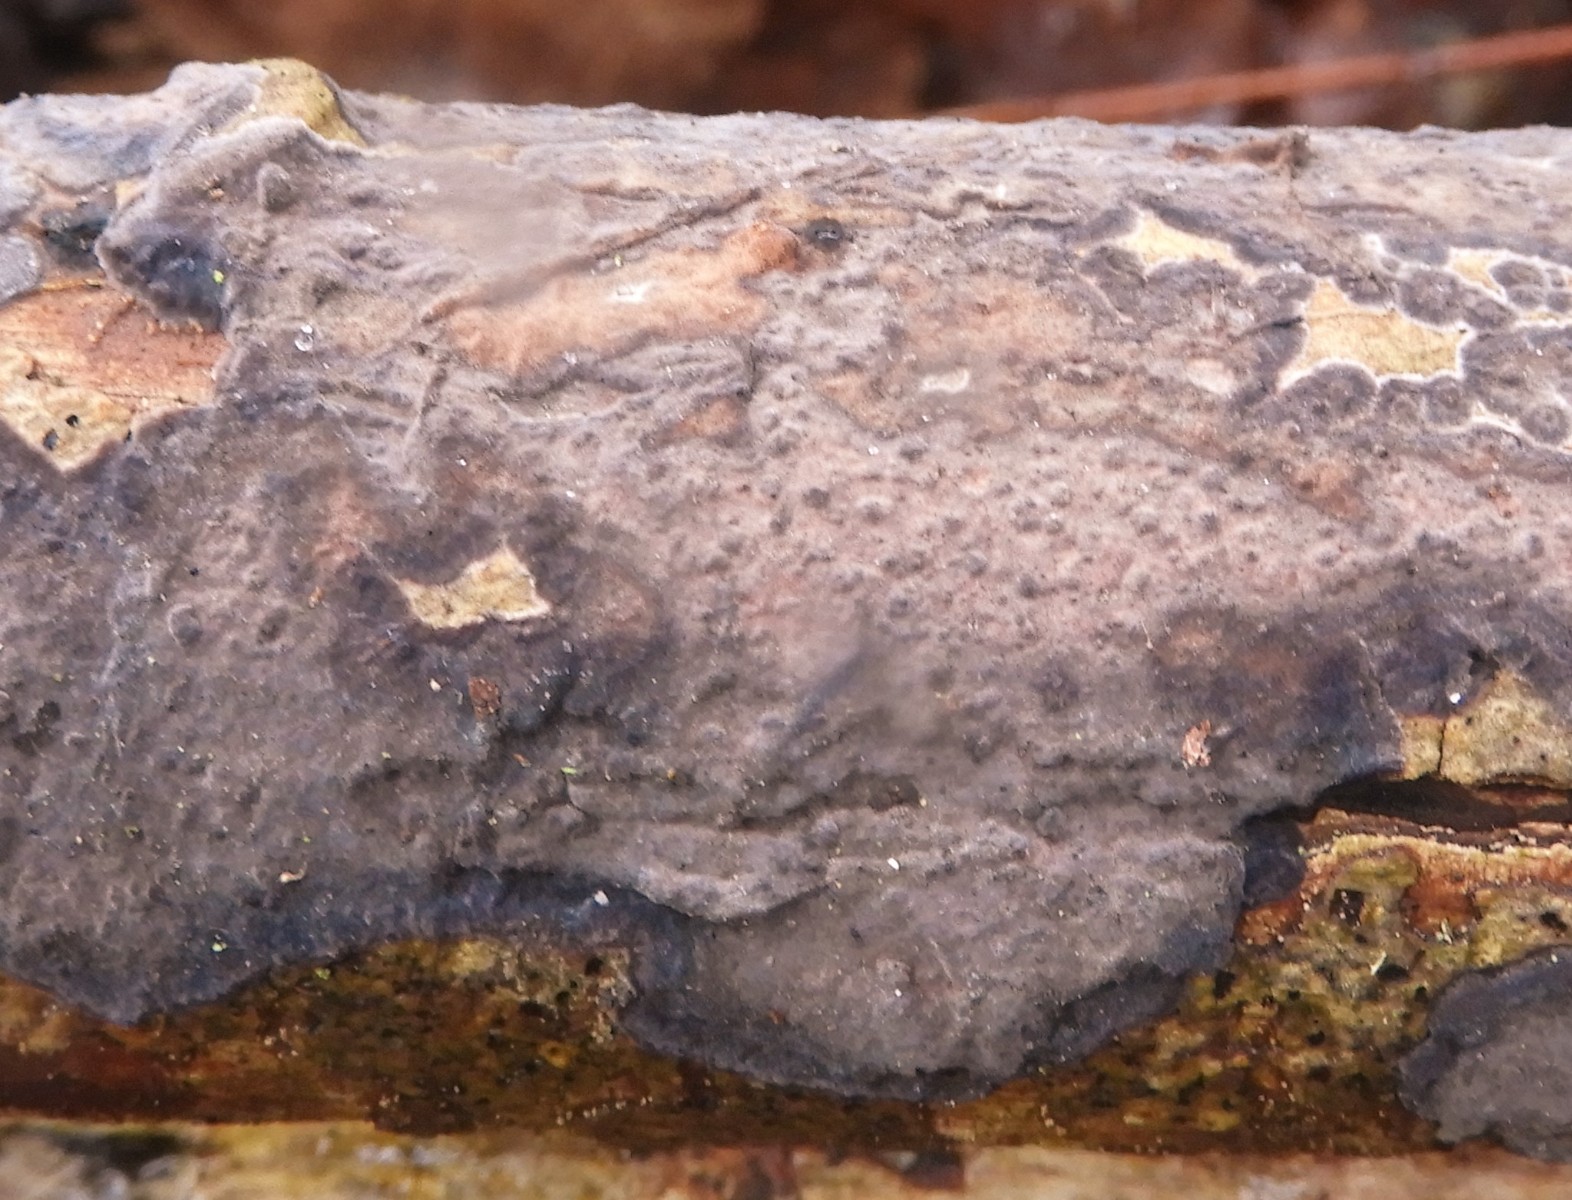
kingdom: Fungi
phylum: Basidiomycota
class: Agaricomycetes
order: Russulales
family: Peniophoraceae
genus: Peniophora
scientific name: Peniophora quercina
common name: ege-voksskind
